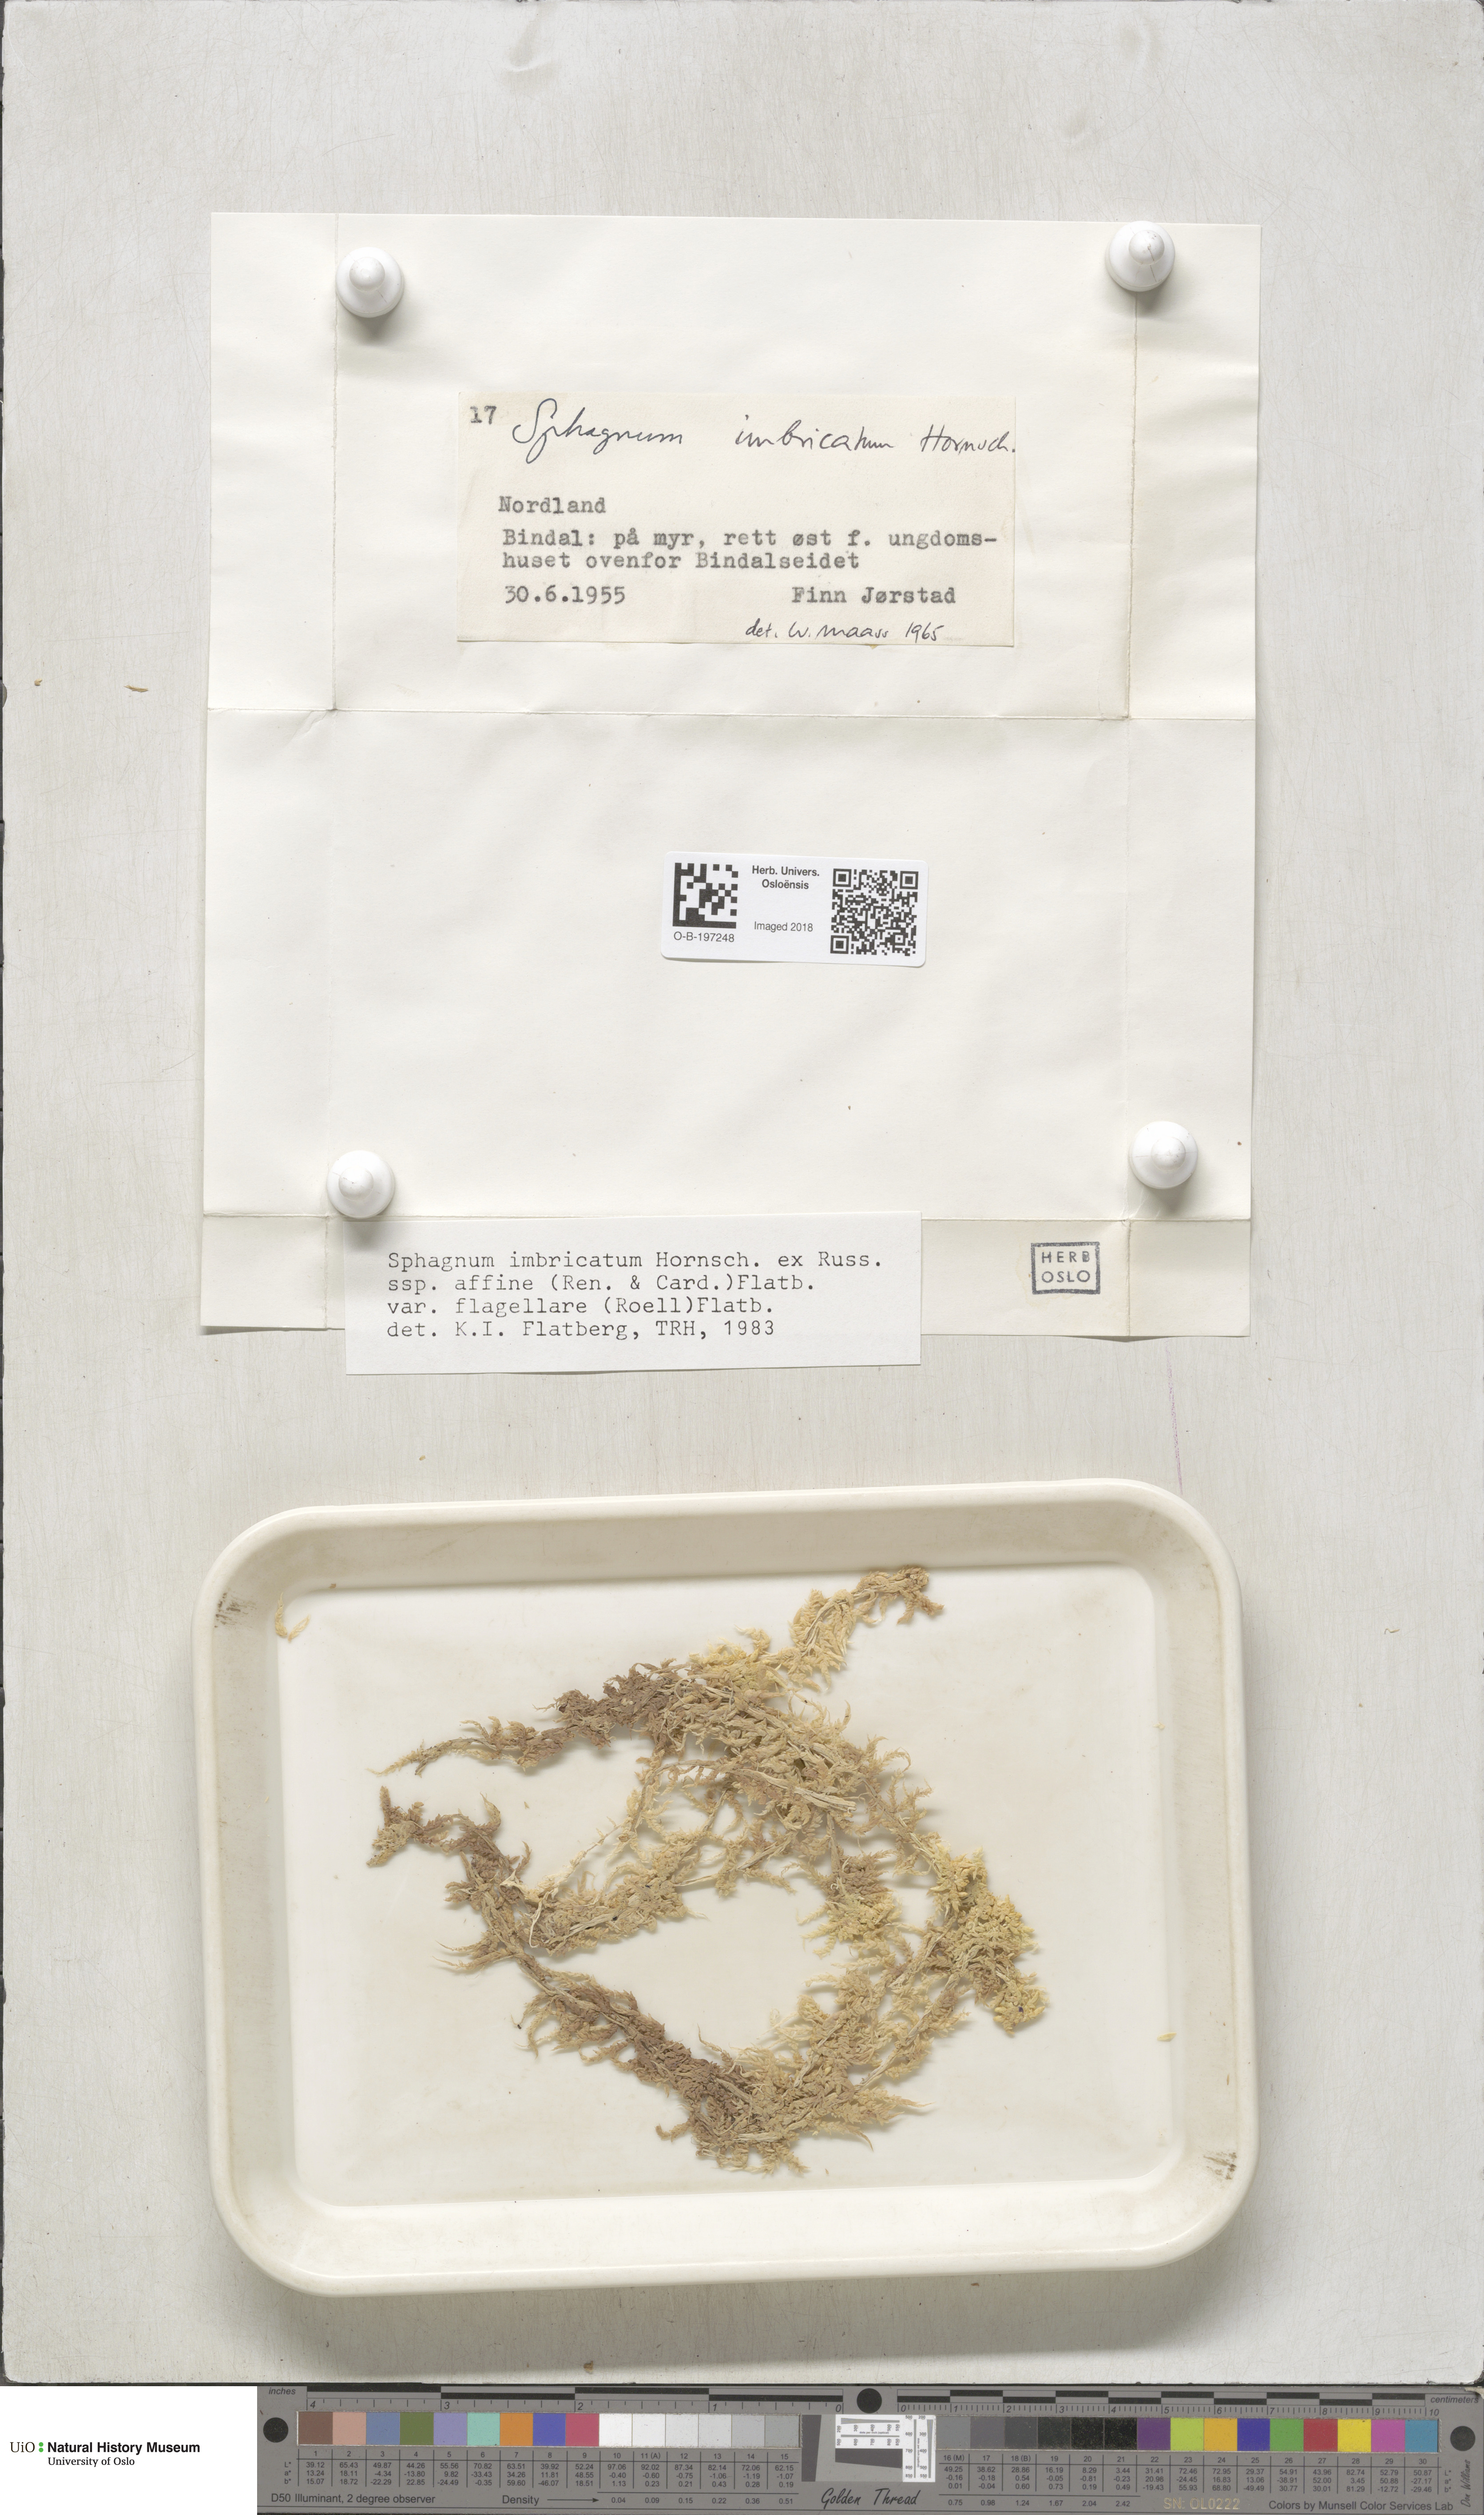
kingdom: Plantae
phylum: Bryophyta
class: Sphagnopsida
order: Sphagnales
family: Sphagnaceae
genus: Sphagnum
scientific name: Sphagnum affine
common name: Imbricate peat moss
